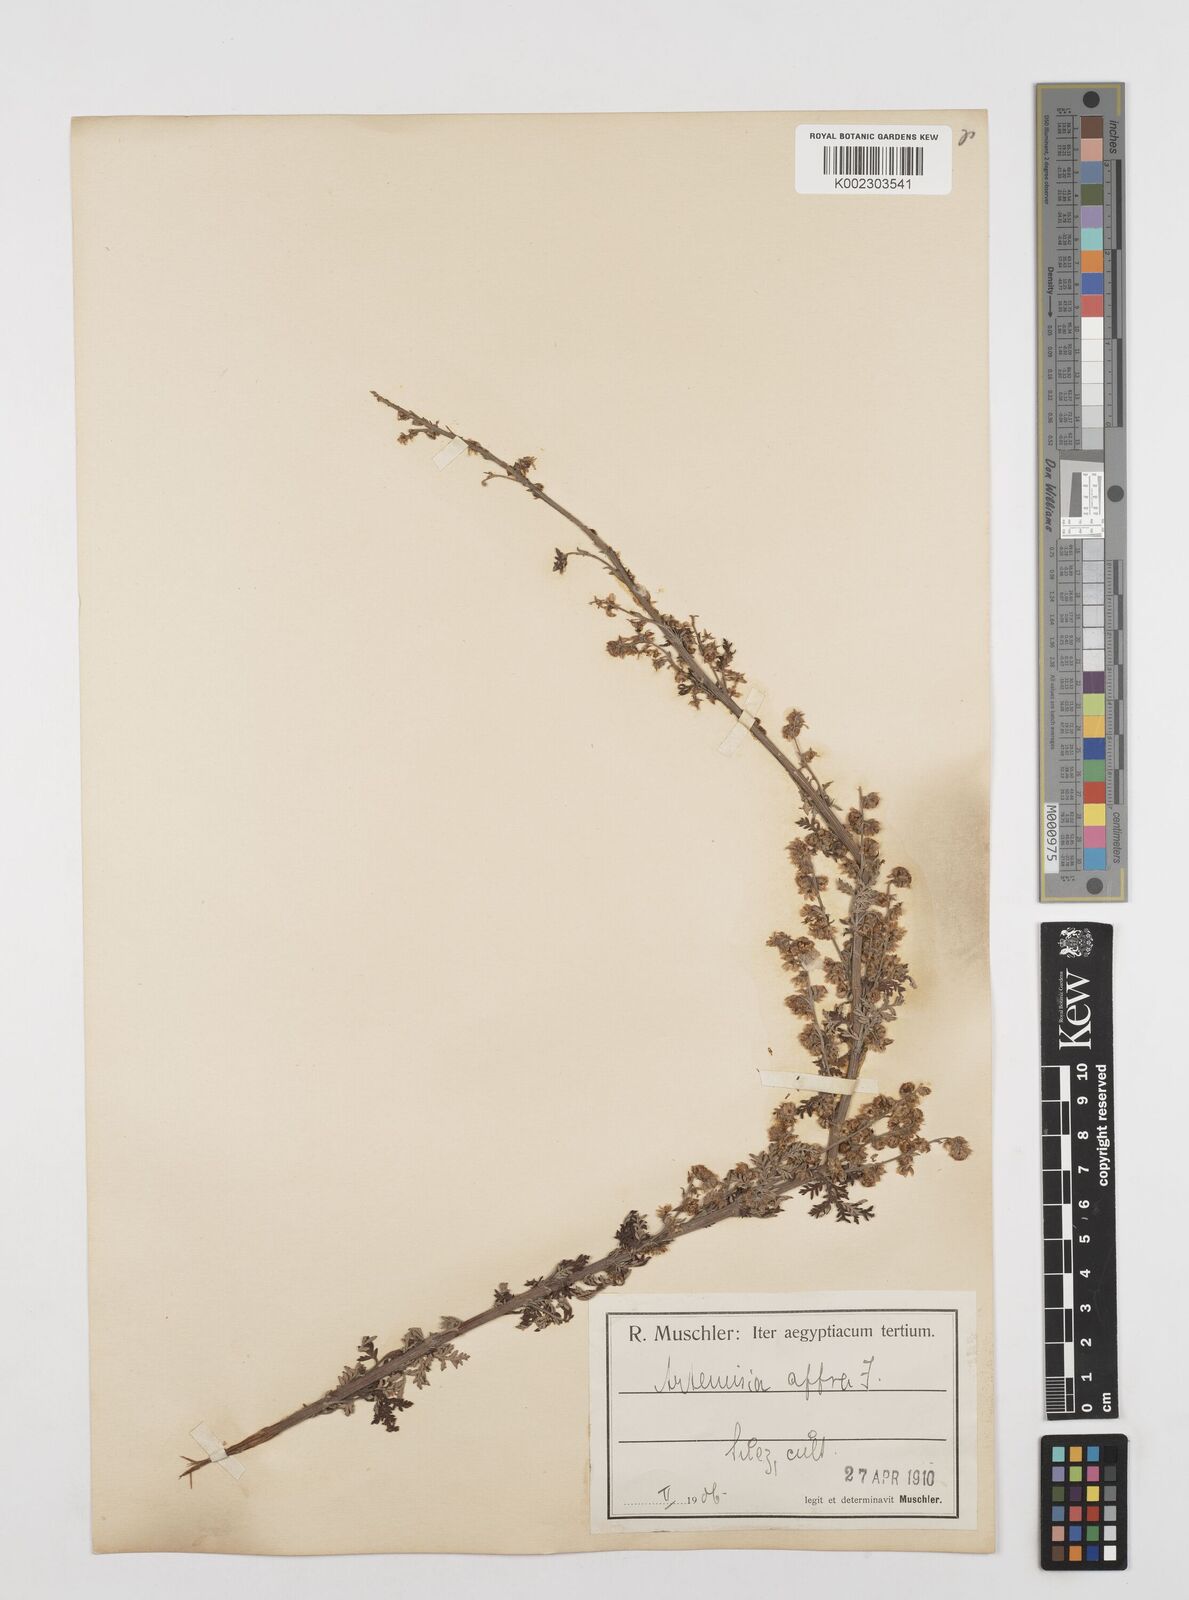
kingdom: Plantae
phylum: Tracheophyta
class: Magnoliopsida
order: Asterales
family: Asteraceae
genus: Artemisia
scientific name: Artemisia afra
